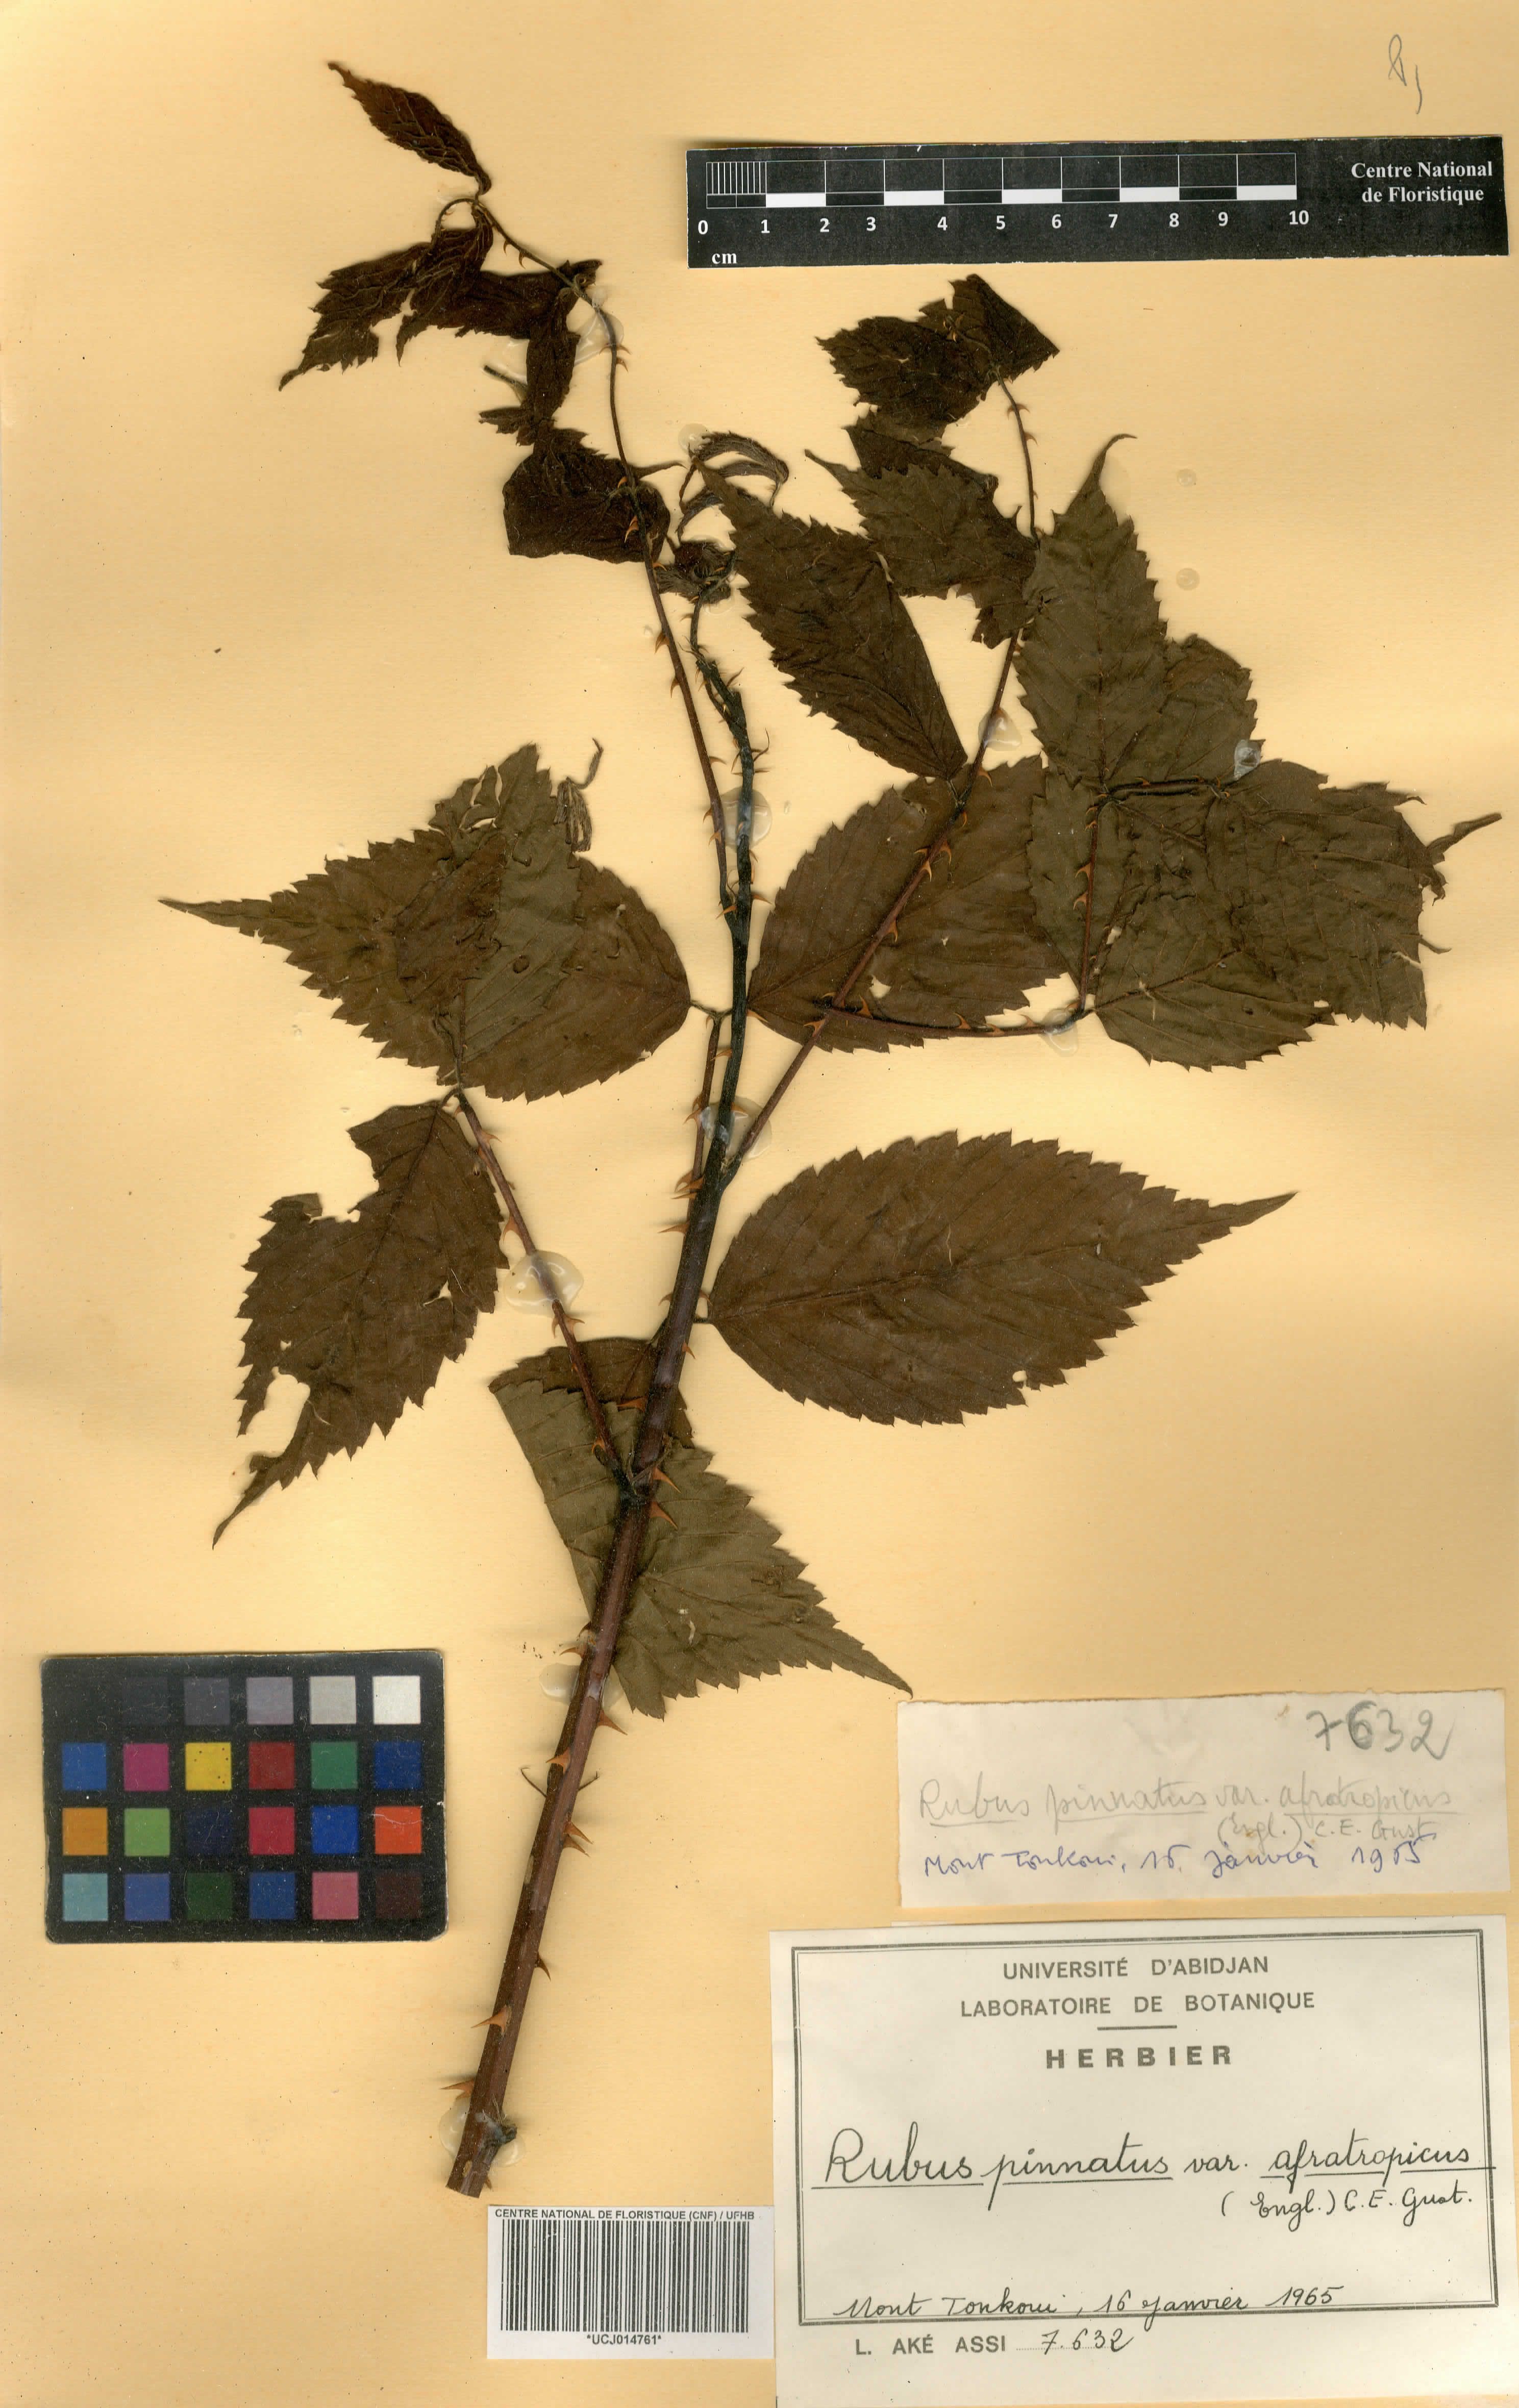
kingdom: Plantae
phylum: Tracheophyta
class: Magnoliopsida
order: Rosales
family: Rosaceae
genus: Rubus
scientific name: Rubus pinnatus
